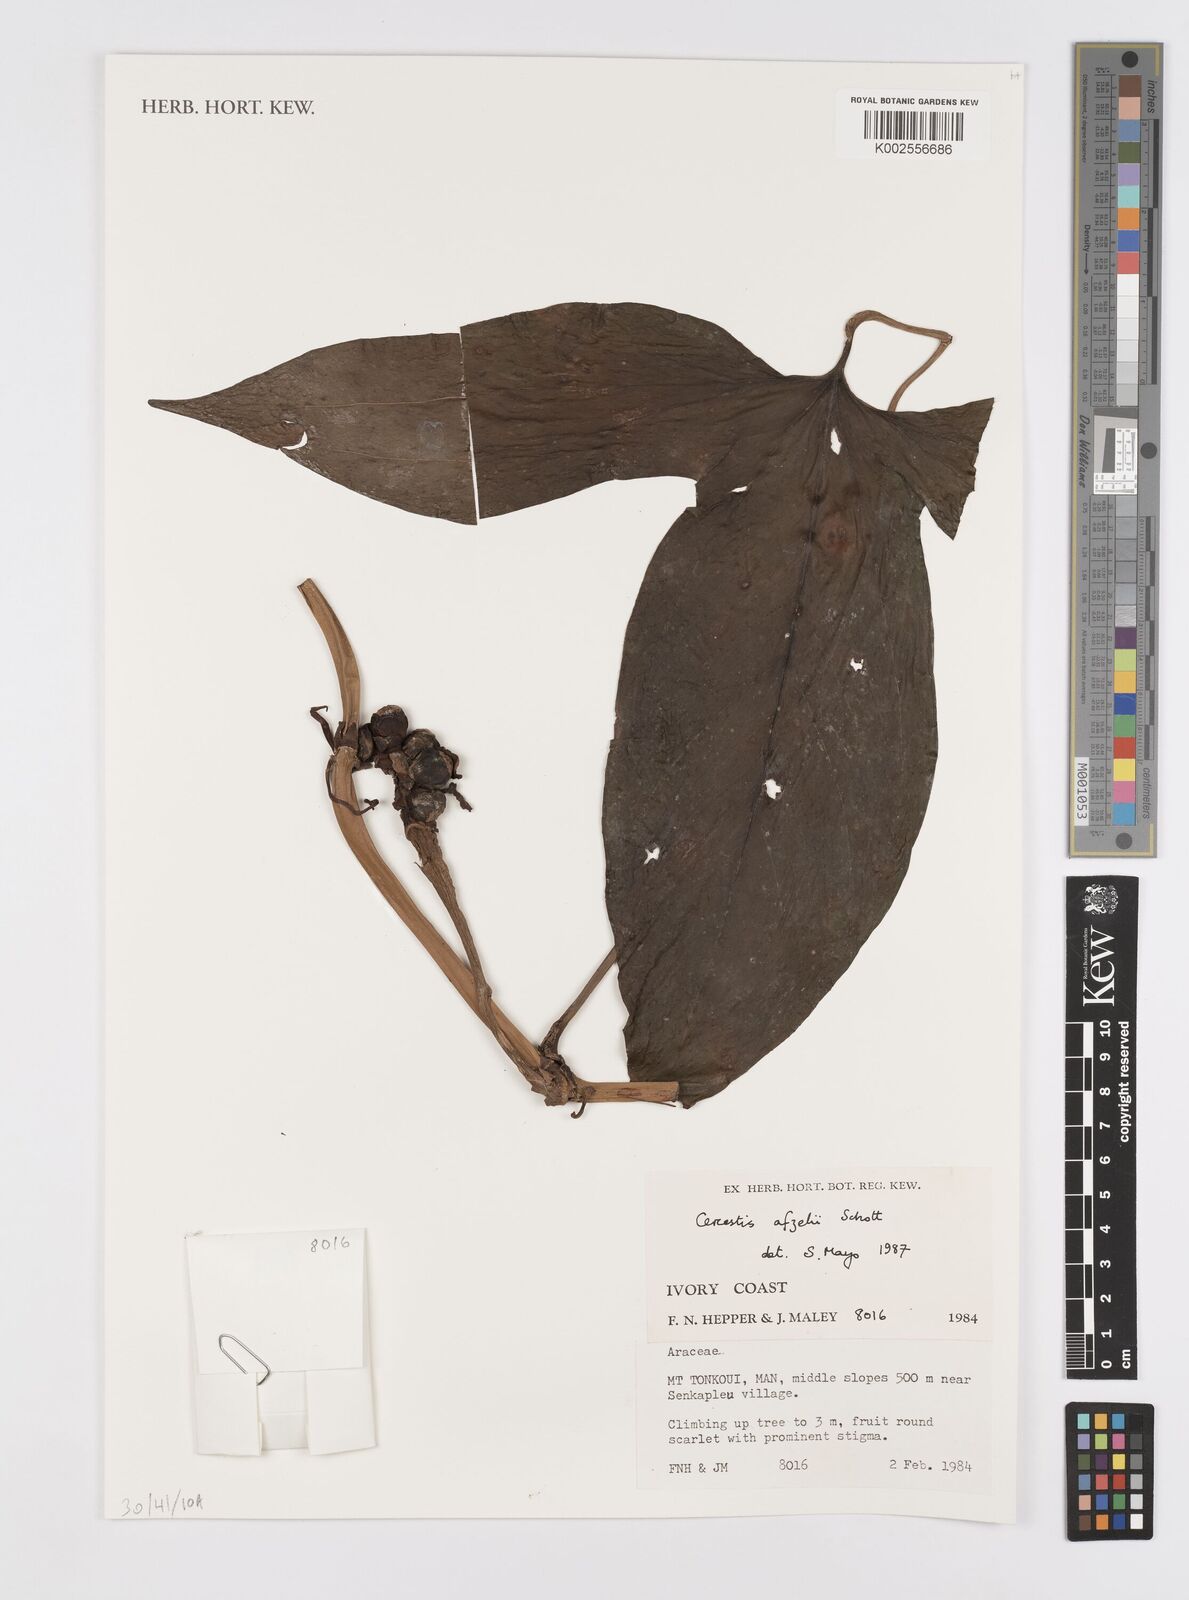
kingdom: Plantae
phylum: Tracheophyta
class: Liliopsida
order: Alismatales
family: Araceae
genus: Cercestis
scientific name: Cercestis afzelii
